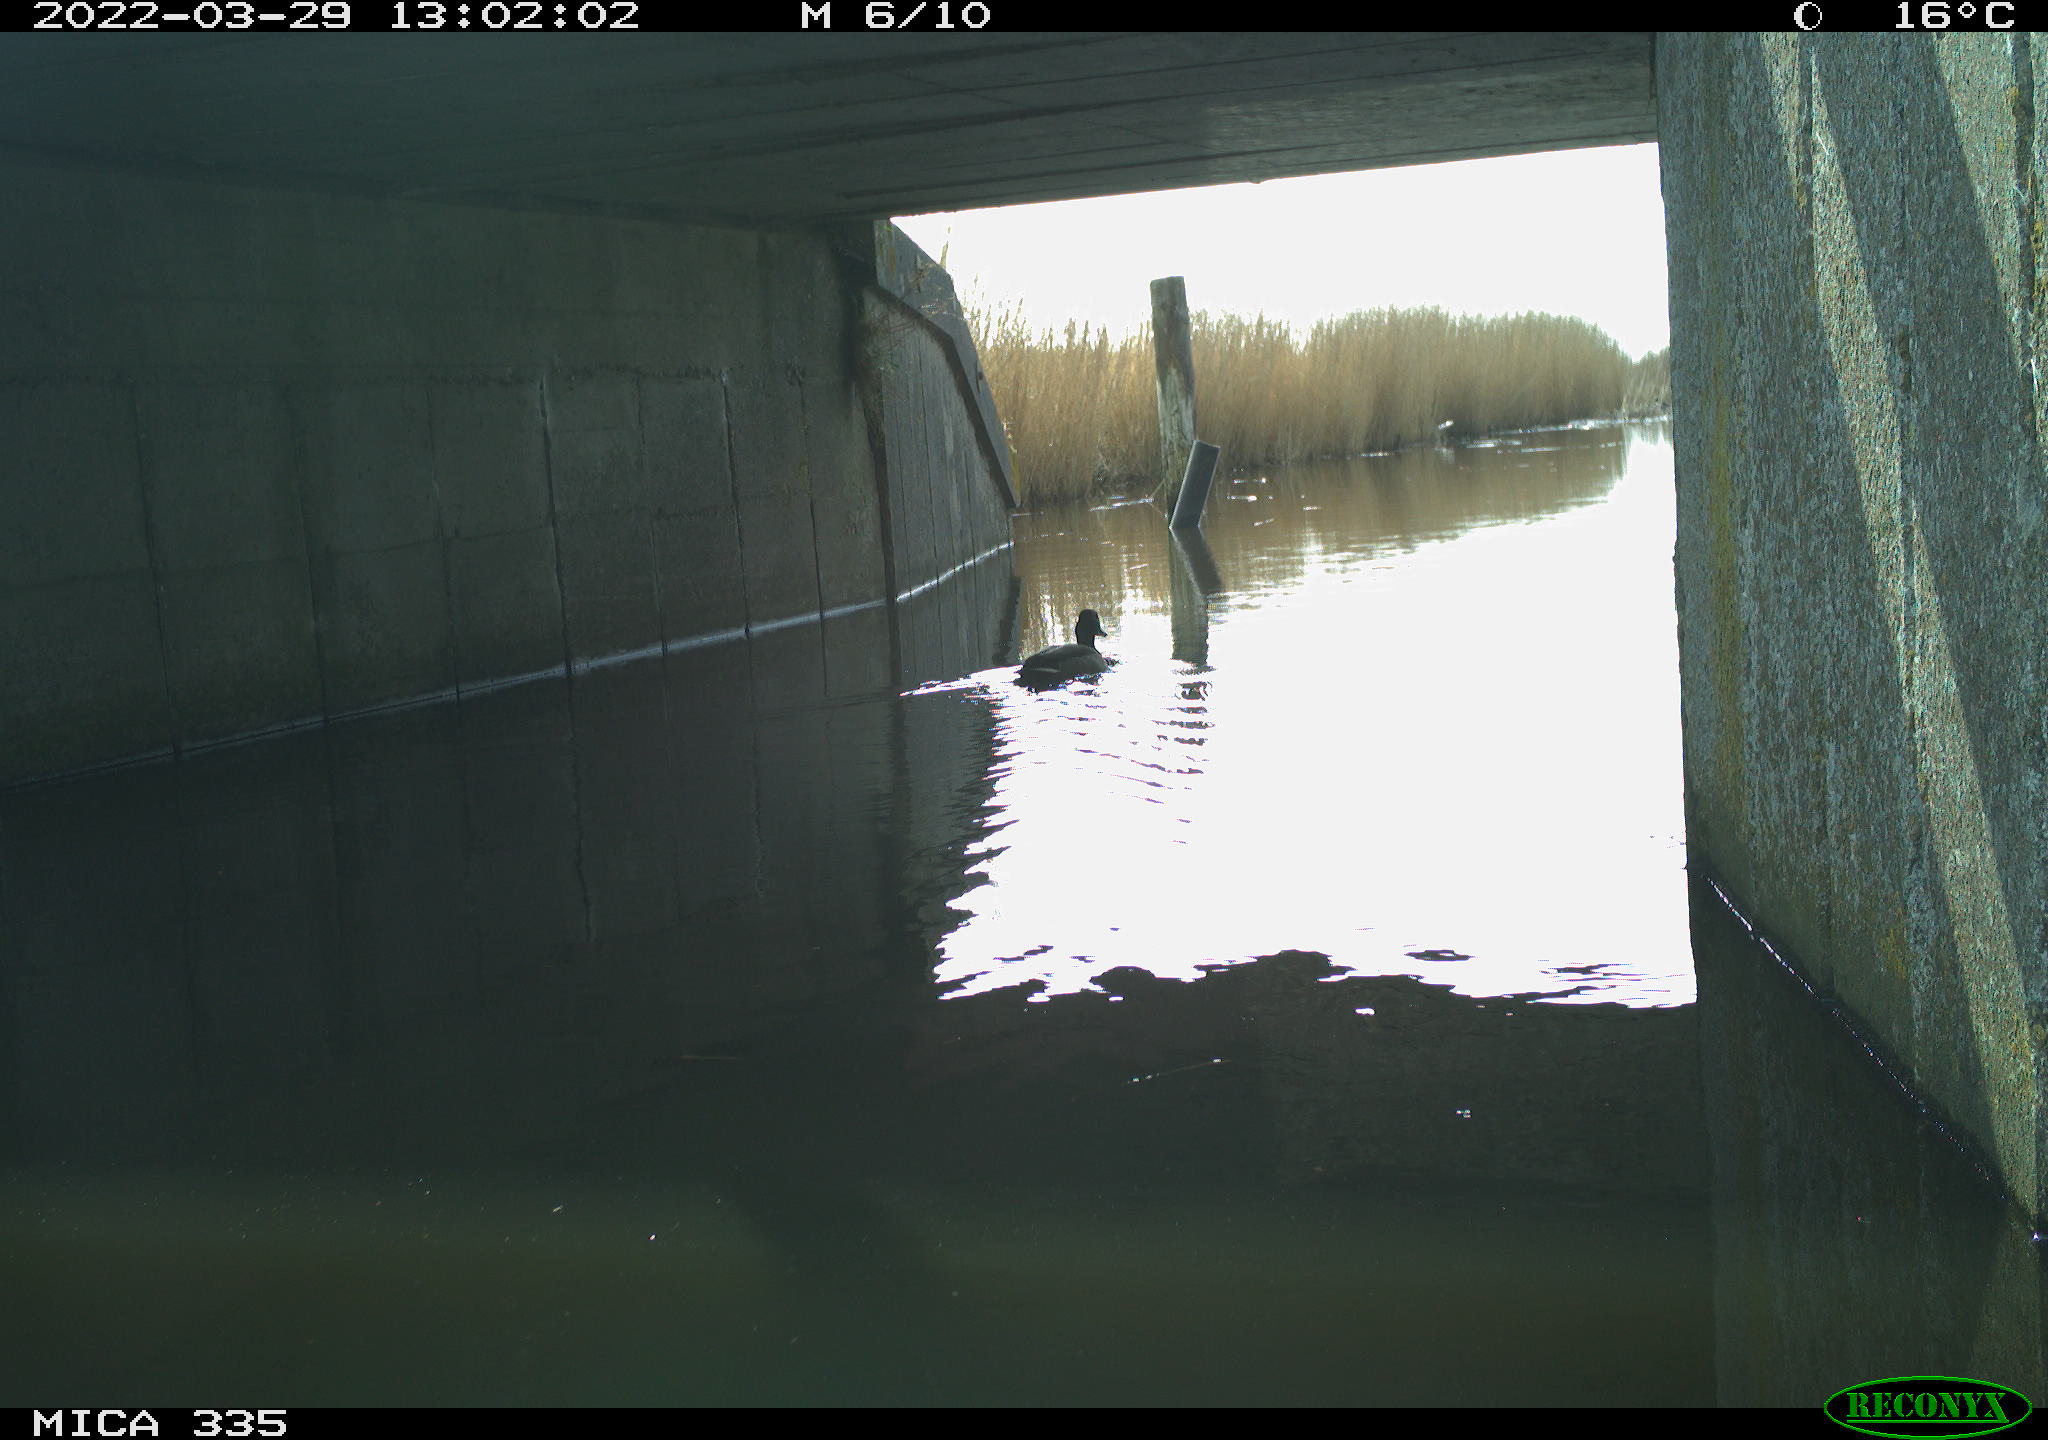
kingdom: Animalia
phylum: Chordata
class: Aves
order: Anseriformes
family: Anatidae
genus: Anas
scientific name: Anas platyrhynchos
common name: Mallard
